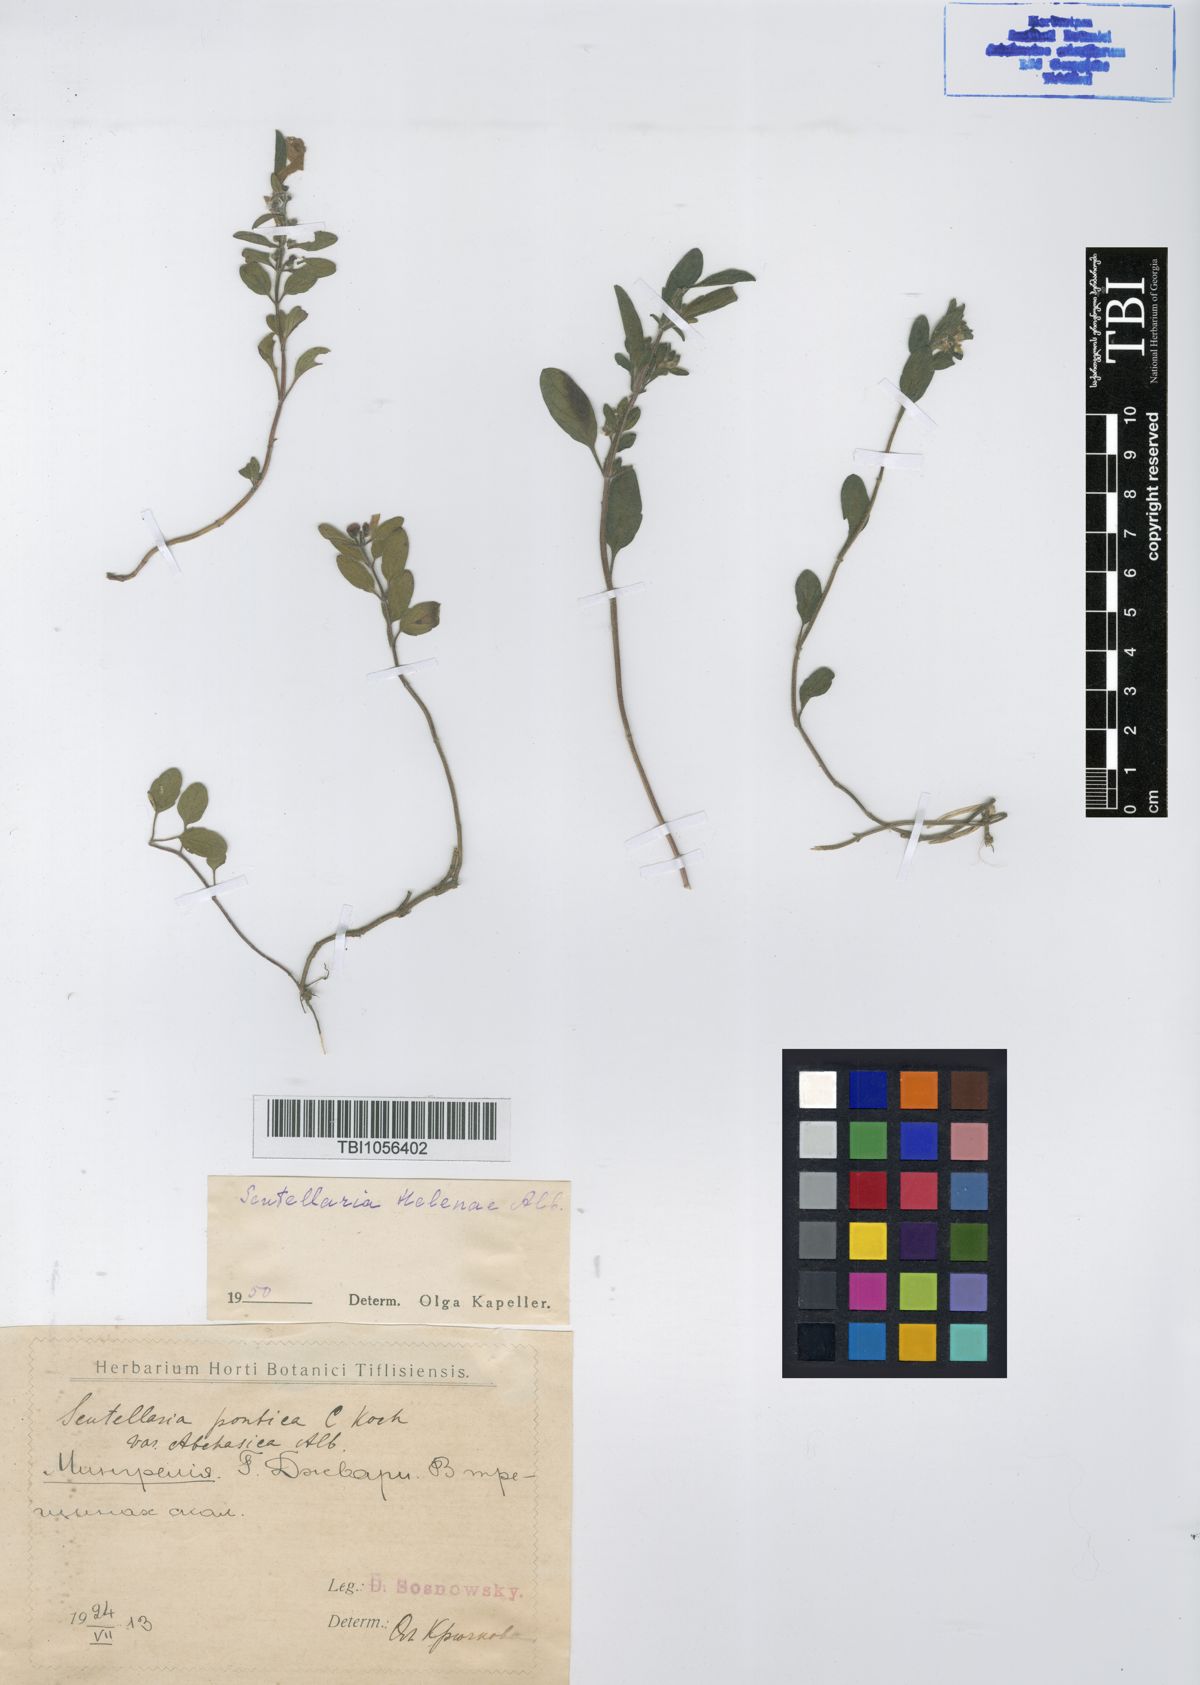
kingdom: Plantae
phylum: Tracheophyta
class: Magnoliopsida
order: Lamiales
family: Lamiaceae
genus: Scutellaria
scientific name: Scutellaria helenae
